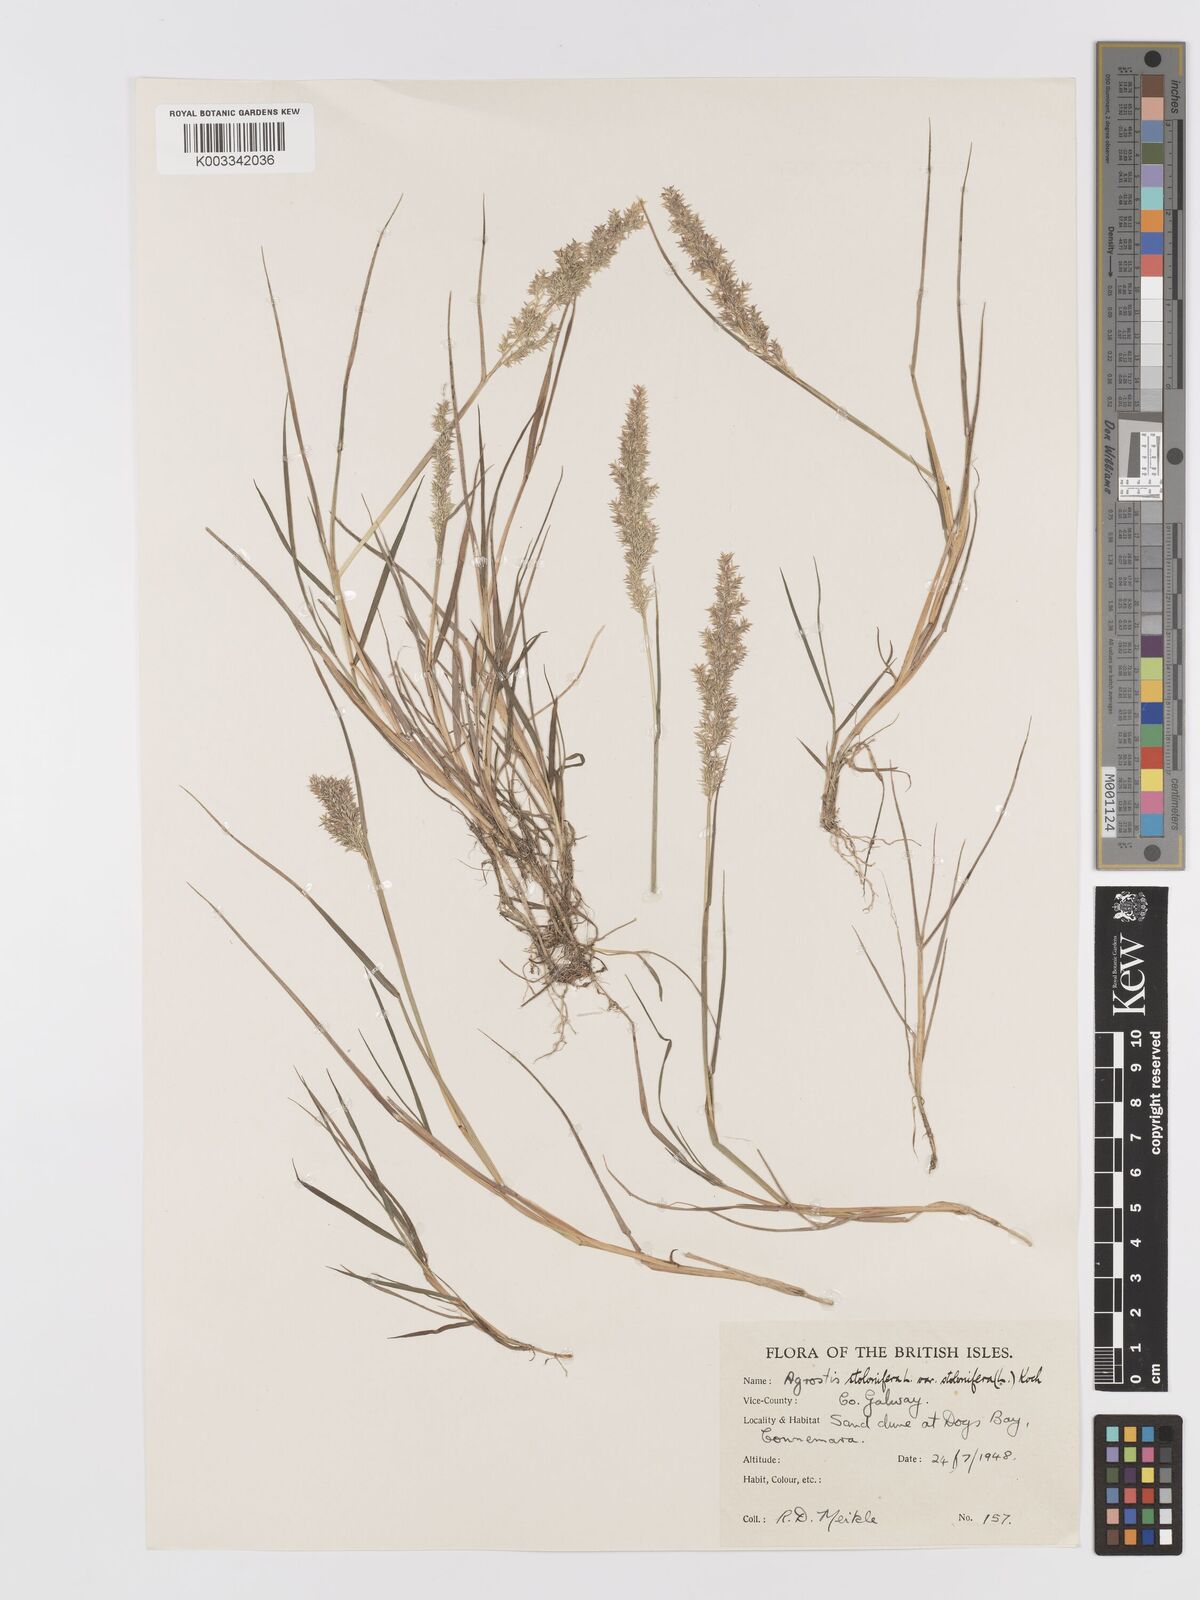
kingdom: Plantae
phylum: Tracheophyta
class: Liliopsida
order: Poales
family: Poaceae
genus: Agrostis
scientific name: Agrostis stolonifera
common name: Creeping bentgrass
